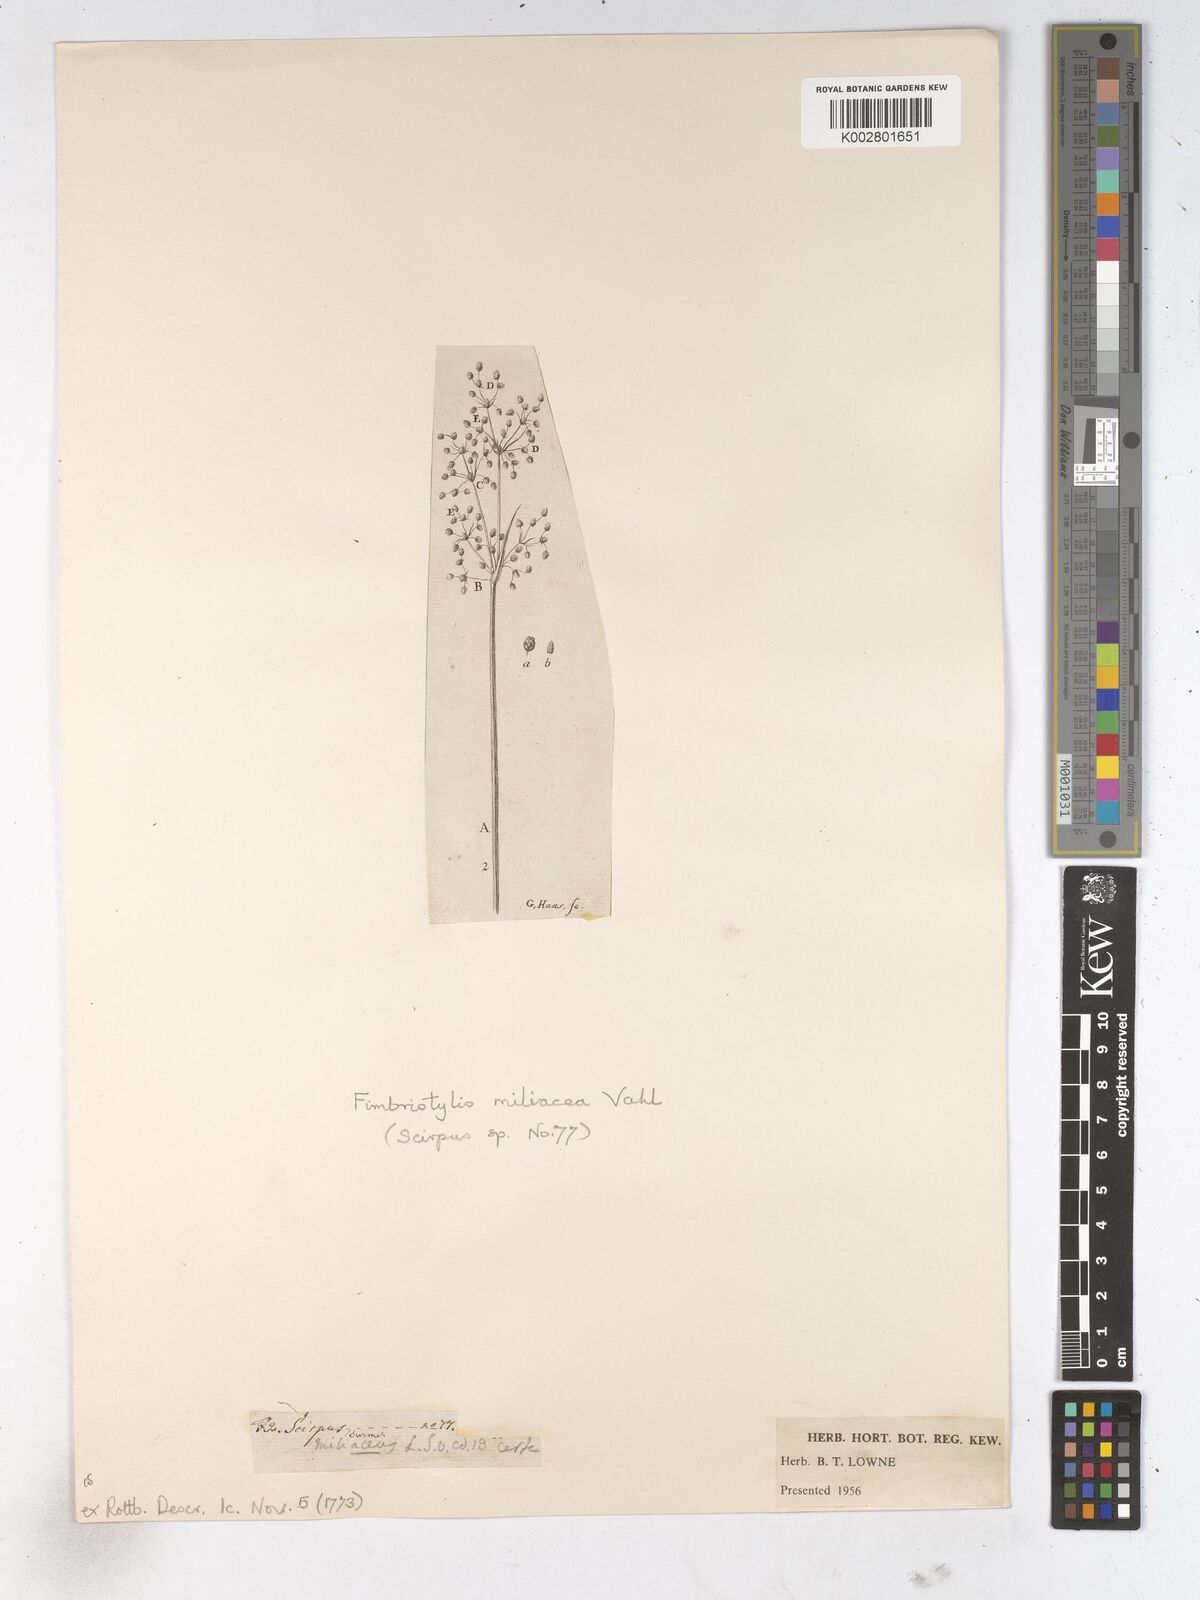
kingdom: Plantae
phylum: Tracheophyta
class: Liliopsida
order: Poales
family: Cyperaceae
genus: Fimbristylis
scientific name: Fimbristylis littoralis
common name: Fimbry
